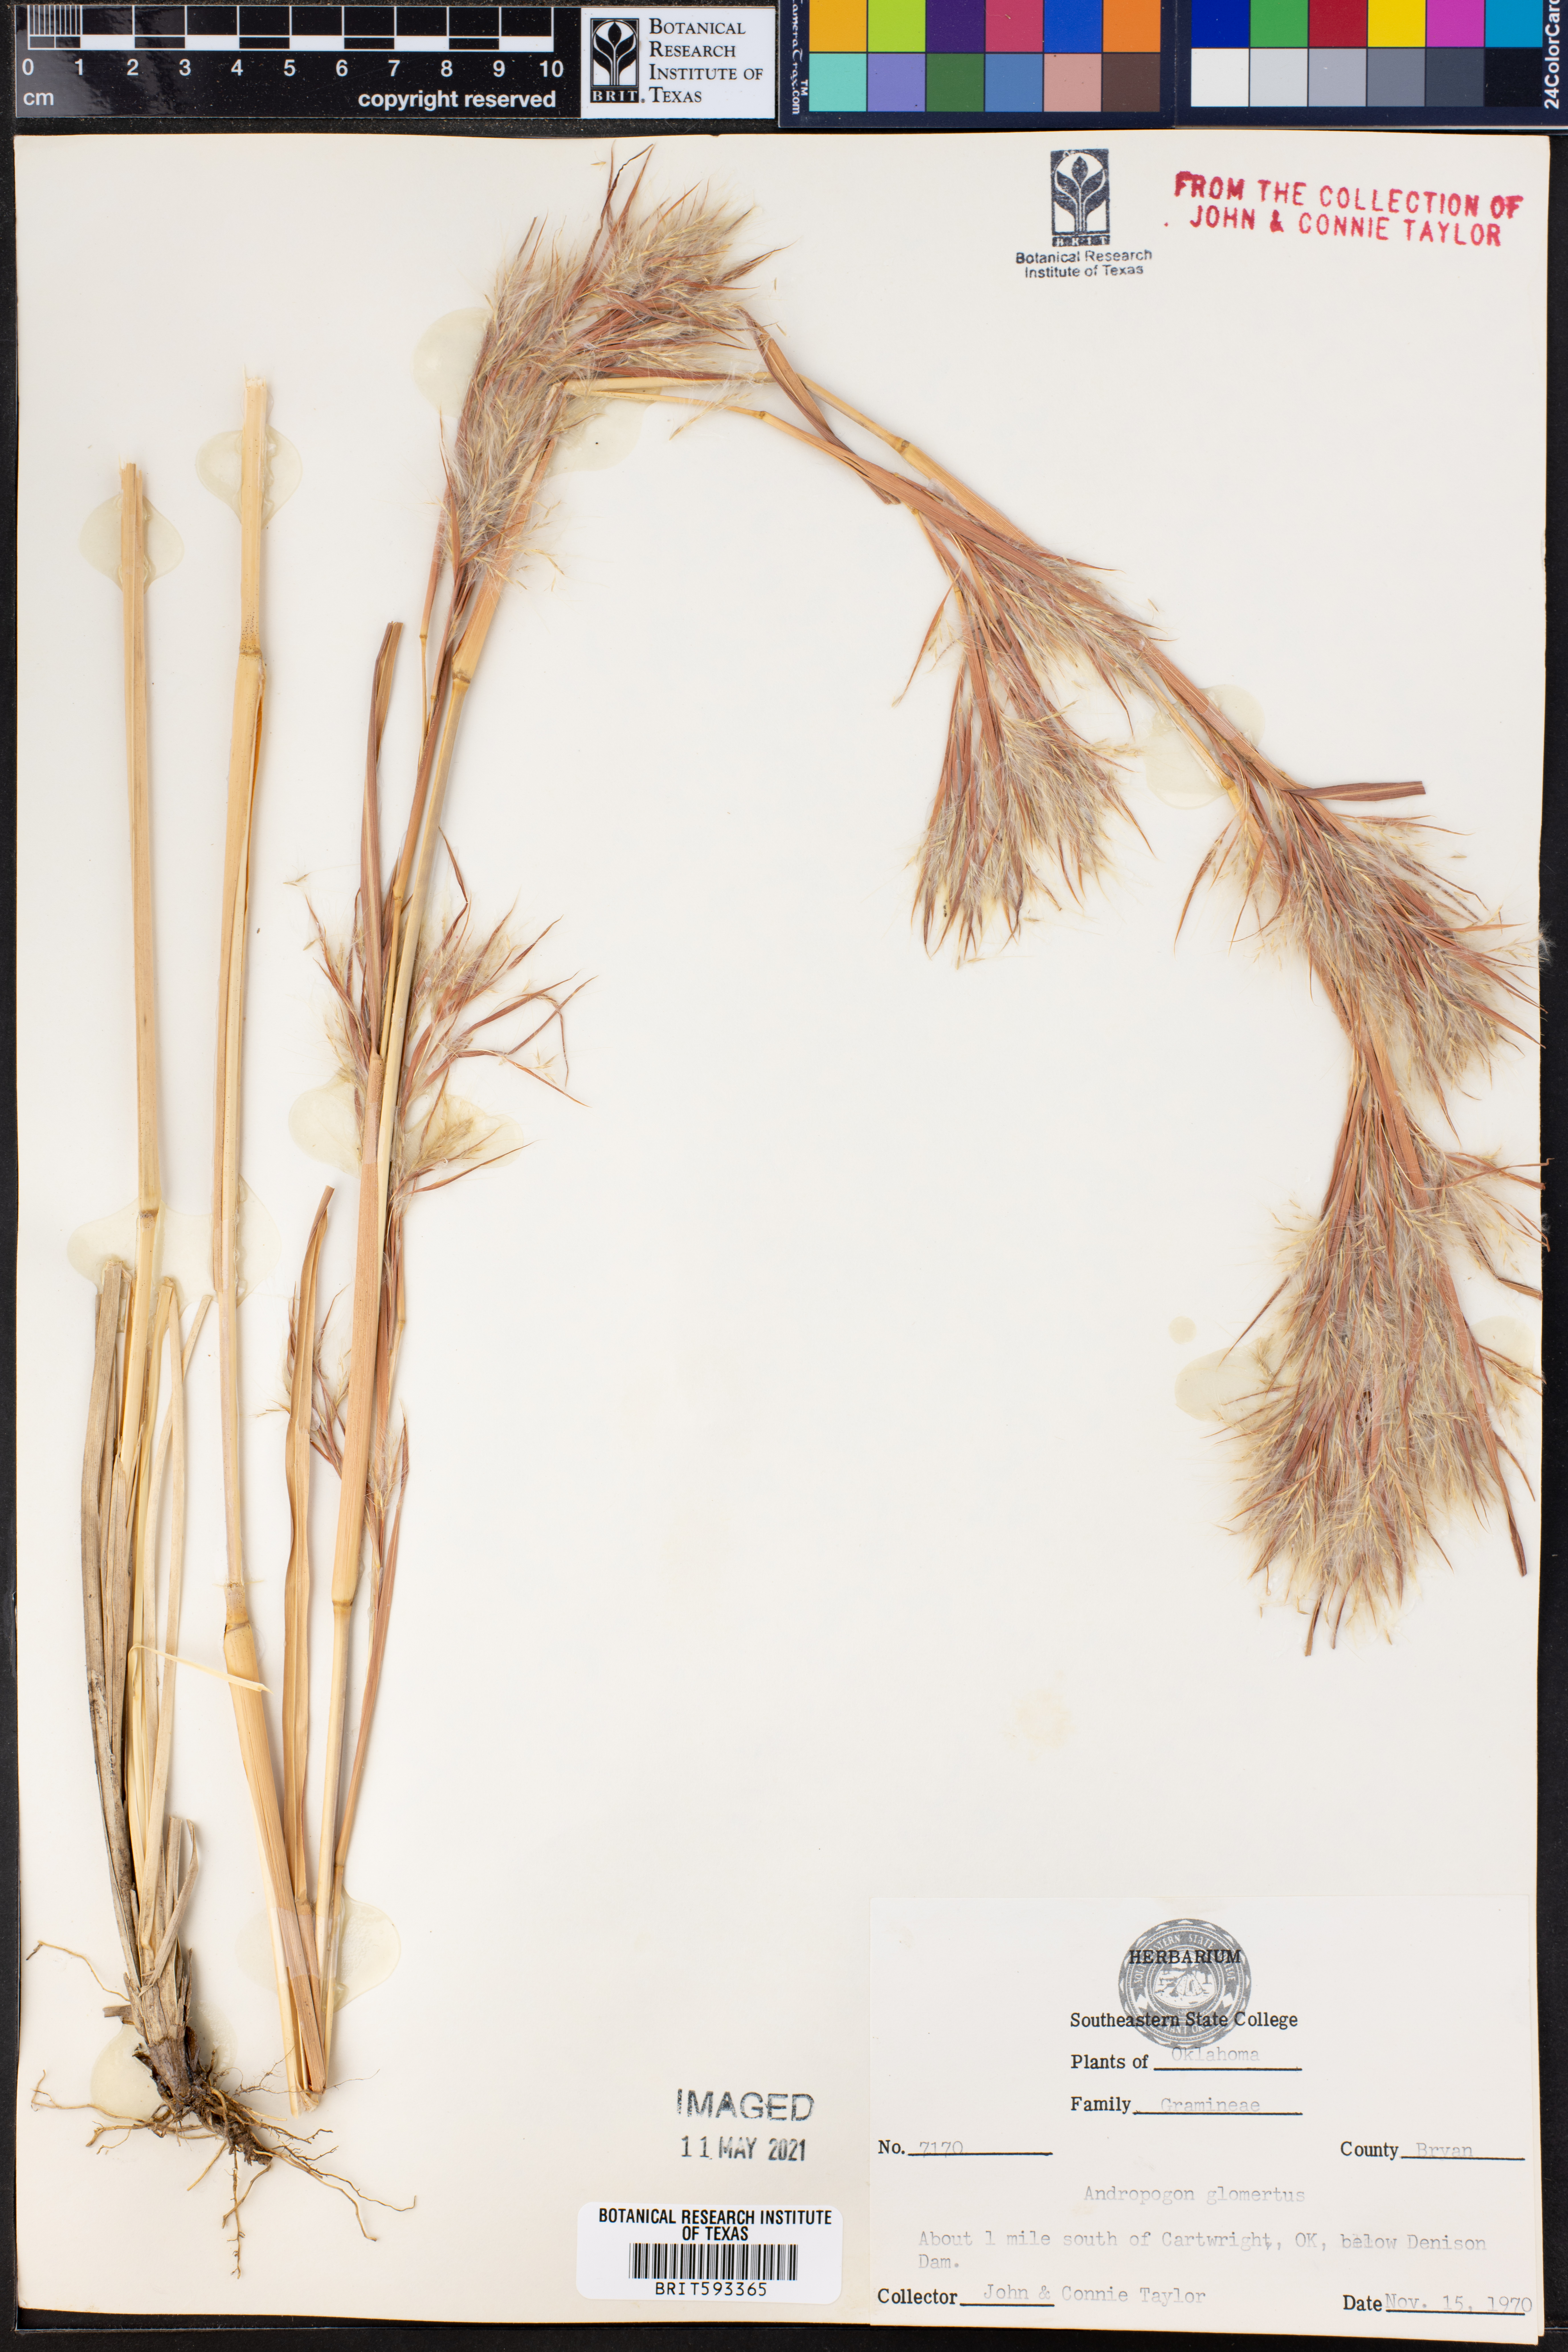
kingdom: Plantae
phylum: Tracheophyta
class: Liliopsida
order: Poales
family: Poaceae
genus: Andropogon
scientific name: Andropogon glomeratus
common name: Bushy beard grass
